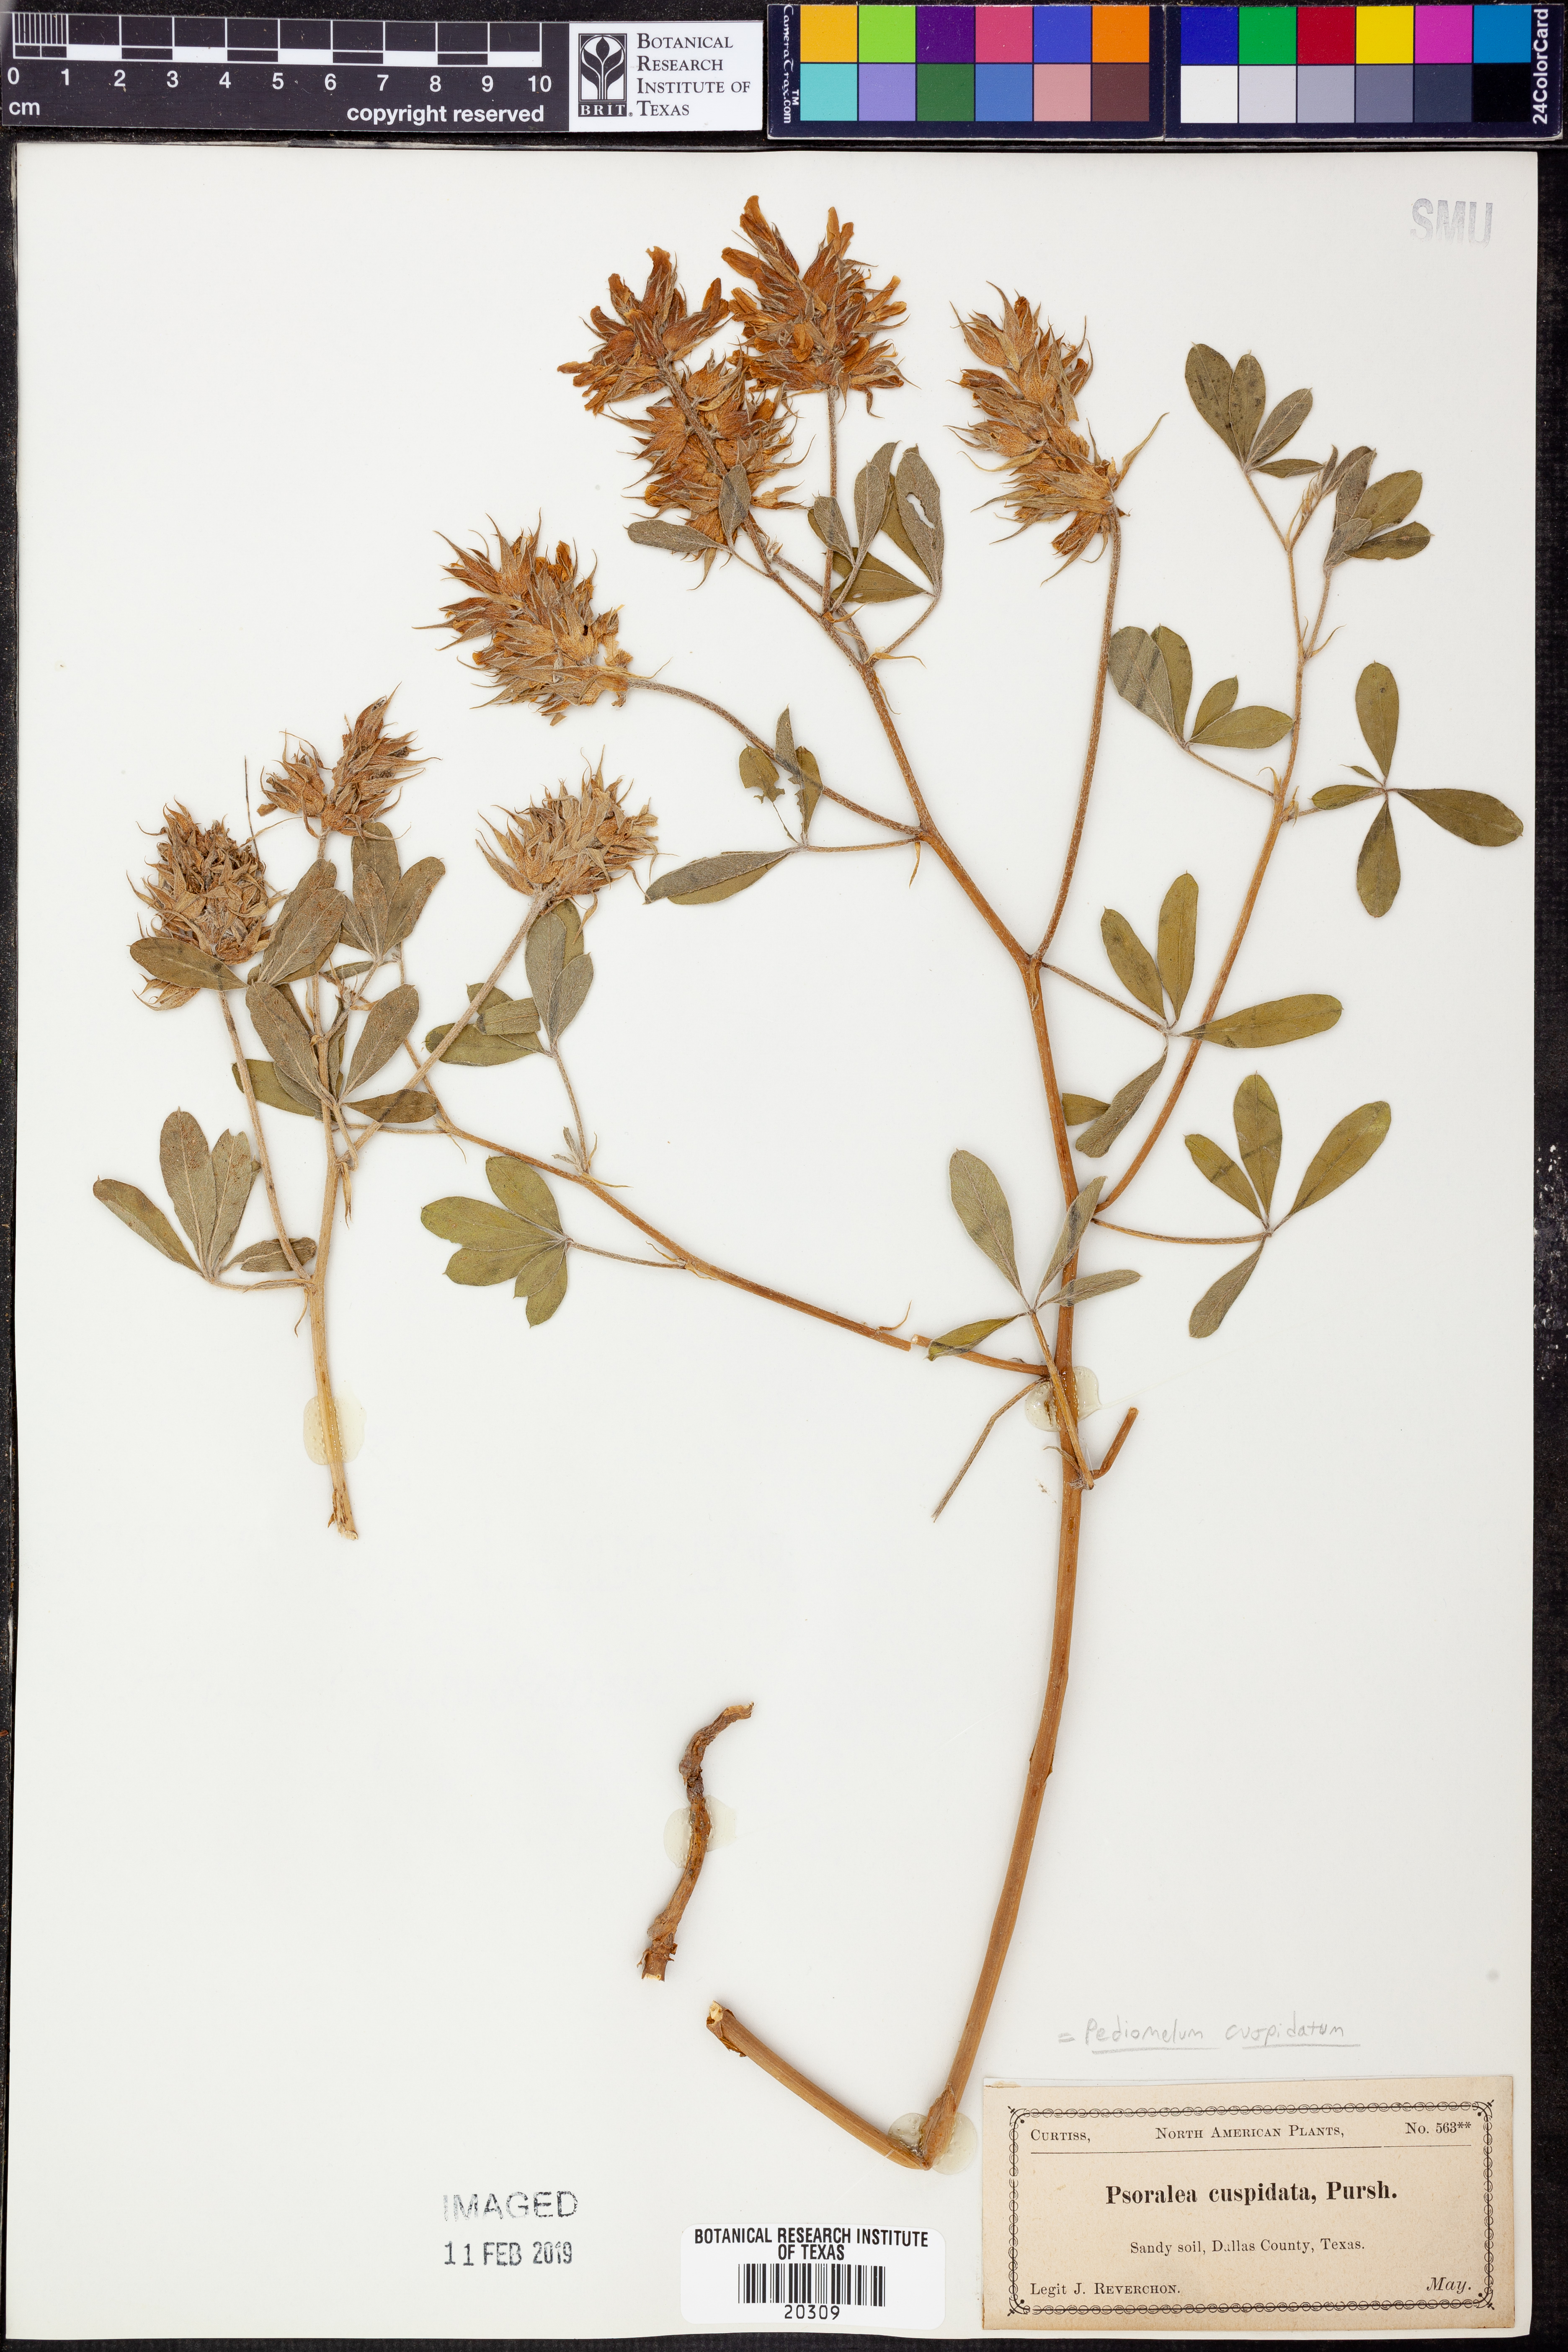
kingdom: Plantae
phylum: Tracheophyta
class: Magnoliopsida
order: Fabales
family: Fabaceae
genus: Pediomelum
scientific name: Pediomelum cuspidatum
